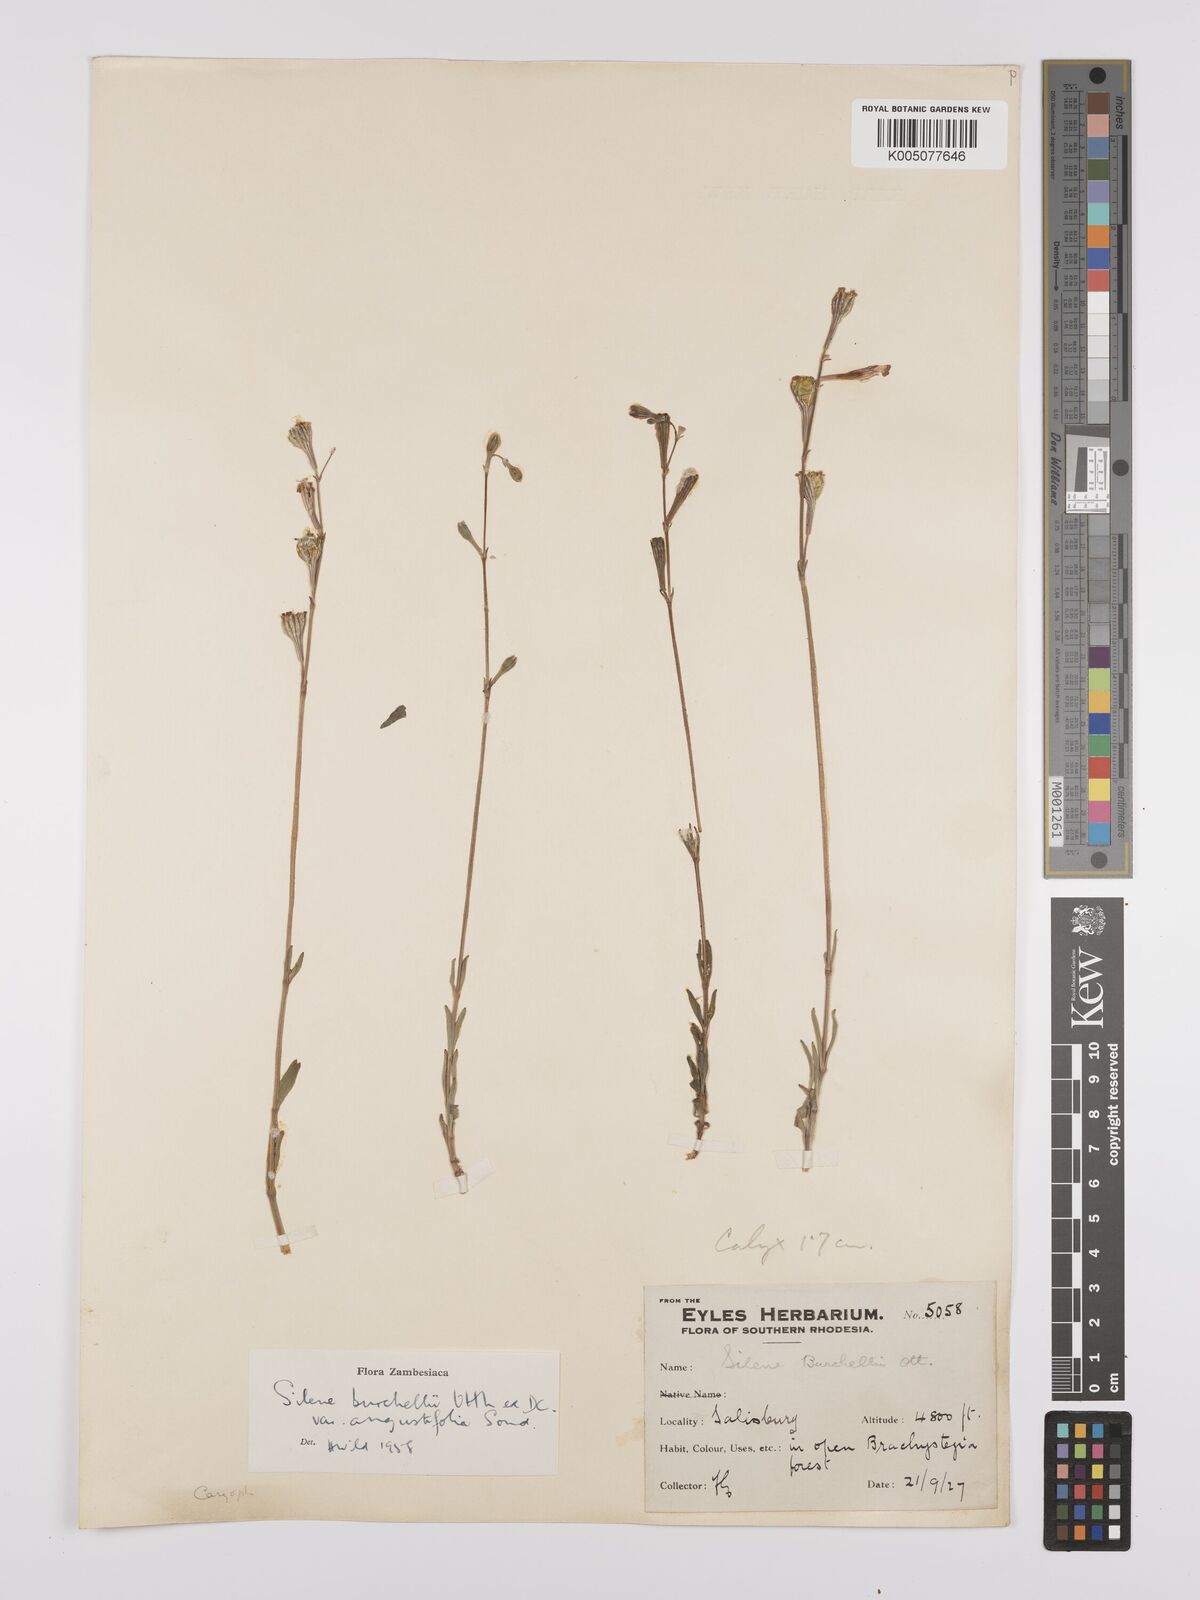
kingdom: Plantae
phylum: Tracheophyta
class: Magnoliopsida
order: Caryophyllales
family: Caryophyllaceae
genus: Silene
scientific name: Silene burchellii
